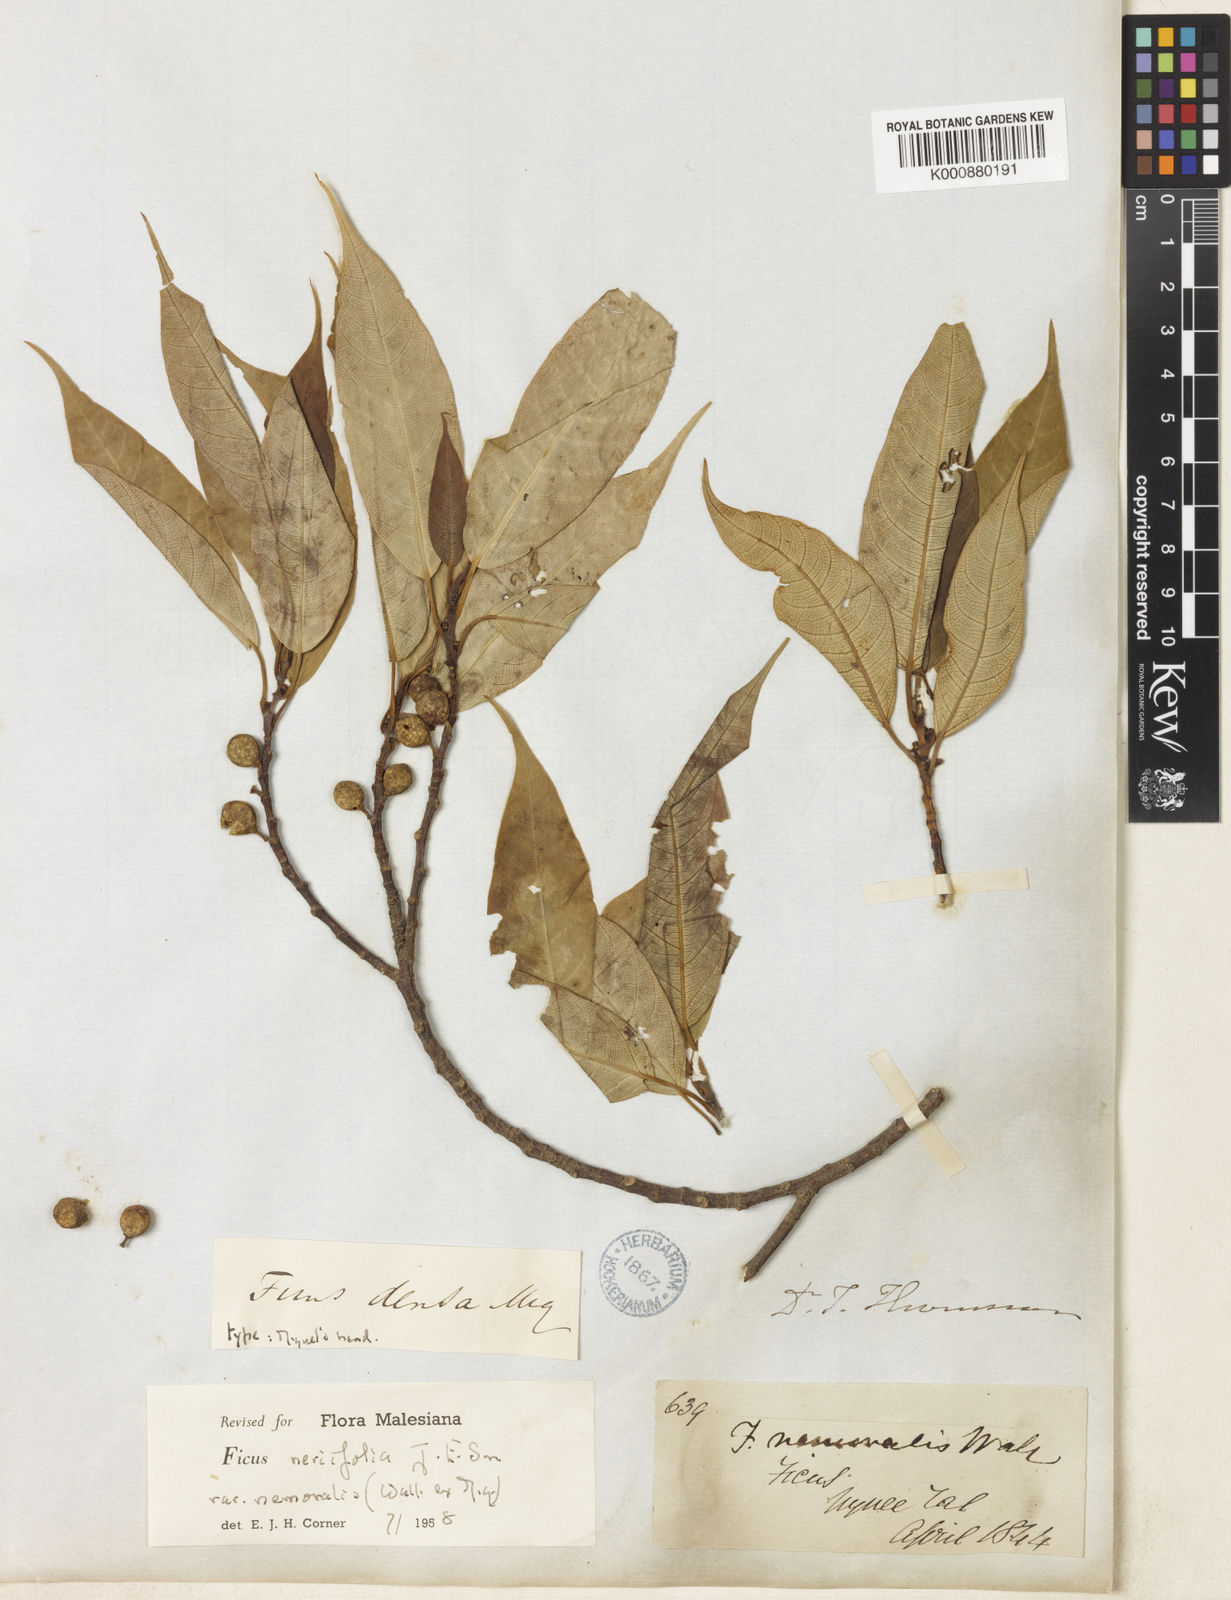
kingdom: Plantae
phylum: Tracheophyta
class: Magnoliopsida
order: Rosales
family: Moraceae
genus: Ficus
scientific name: Ficus neriifolia
